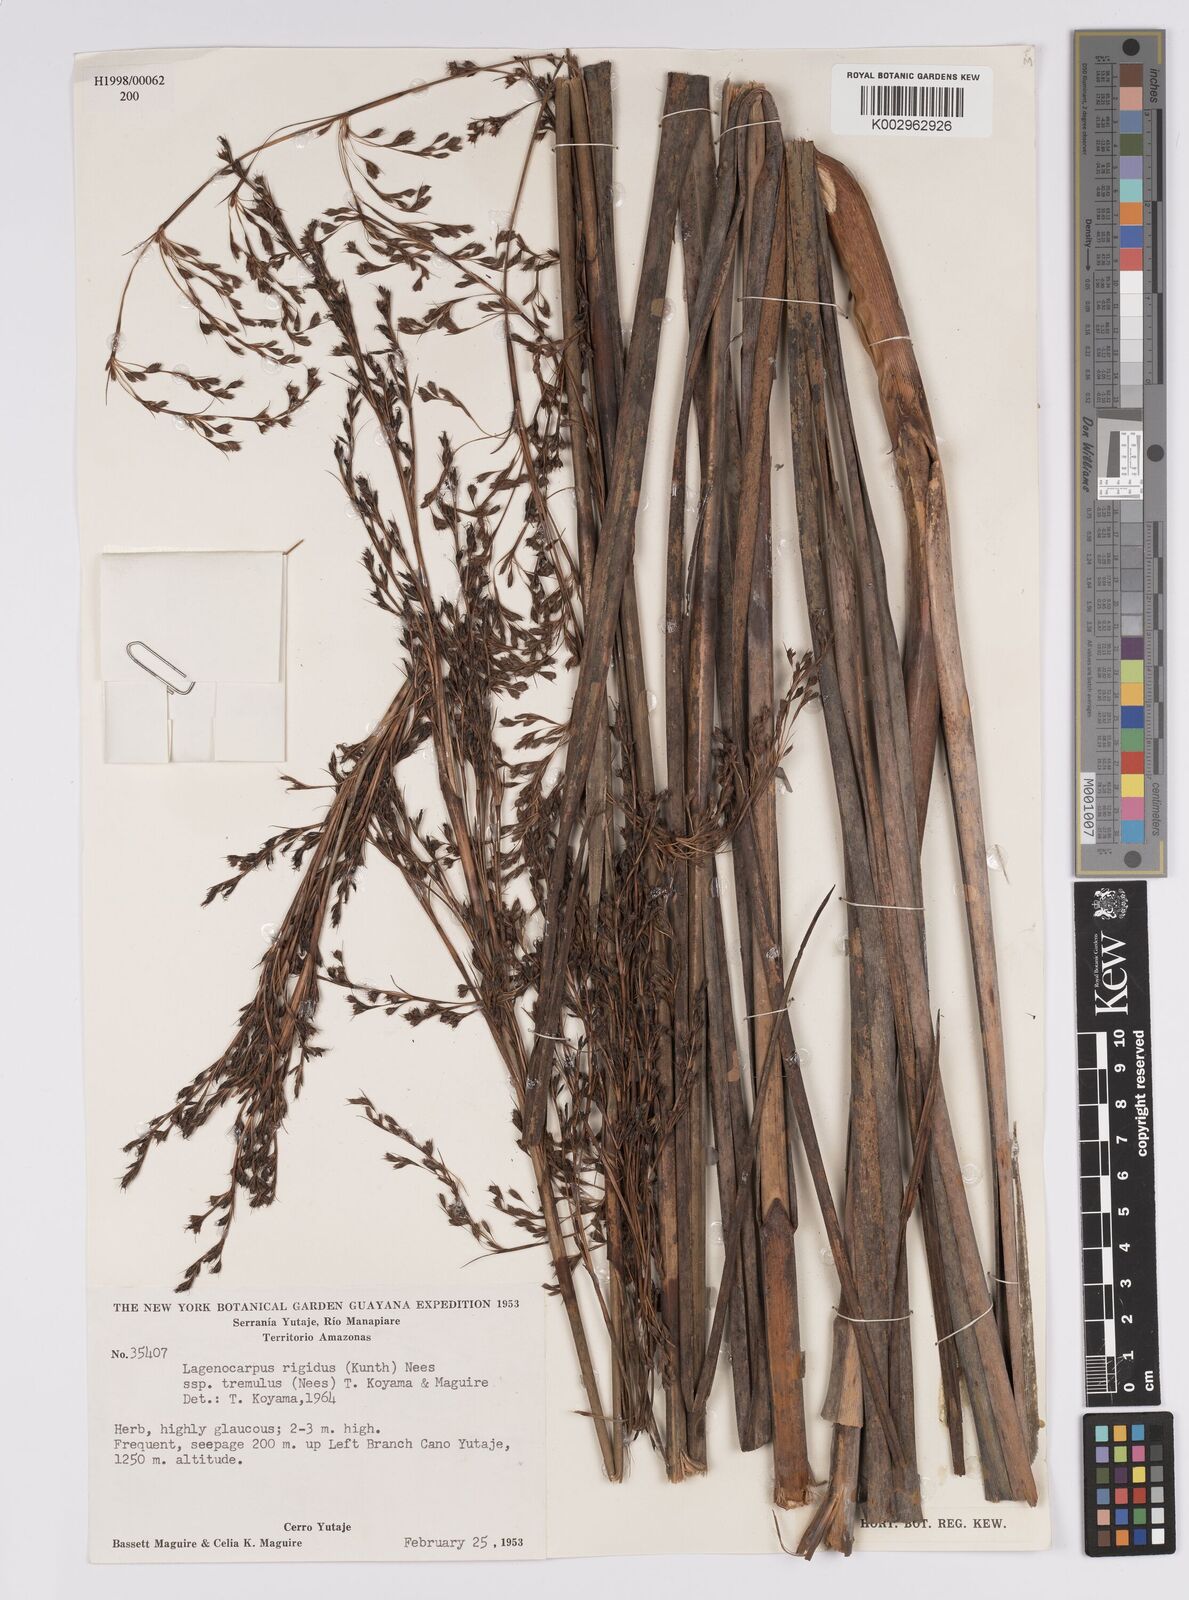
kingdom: Plantae
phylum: Tracheophyta
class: Liliopsida
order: Poales
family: Cyperaceae
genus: Lagenocarpus
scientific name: Lagenocarpus rigidus
